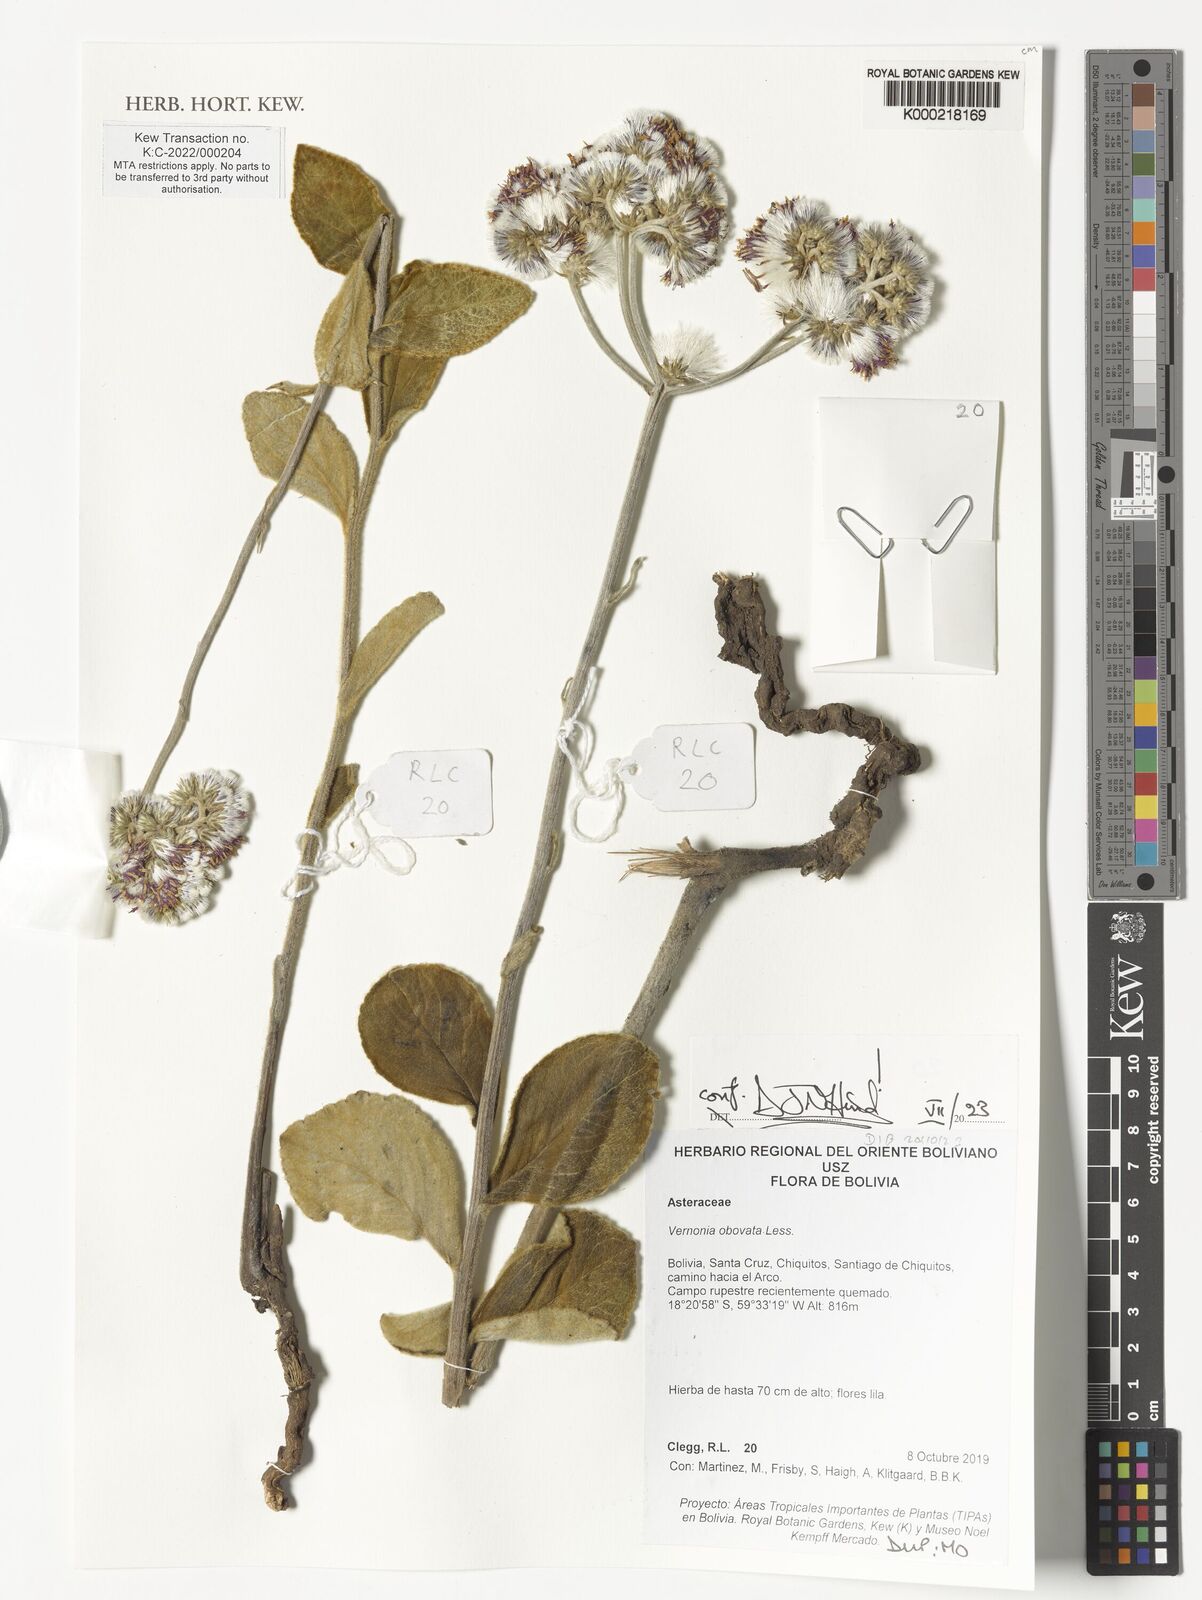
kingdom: Plantae
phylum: Tracheophyta
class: Magnoliopsida
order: Asterales
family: Asteraceae
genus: Chrysolaena
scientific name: Chrysolaena obovata
